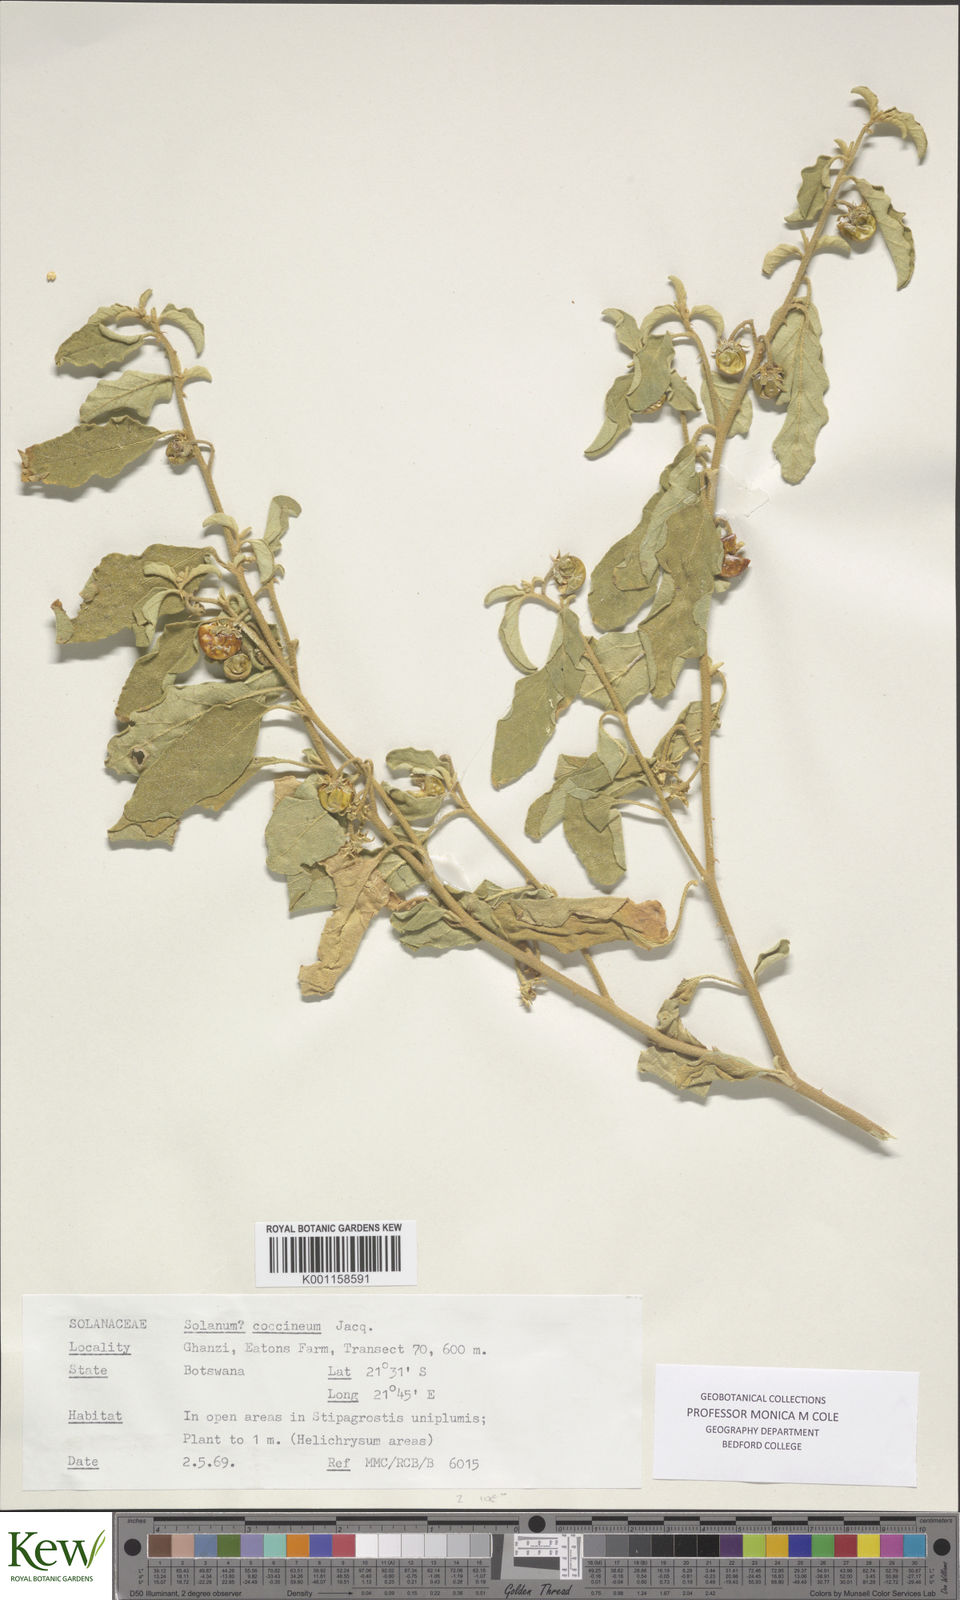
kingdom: Plantae
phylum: Tracheophyta
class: Magnoliopsida
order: Solanales
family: Solanaceae
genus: Solanum
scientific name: Solanum catombelense
